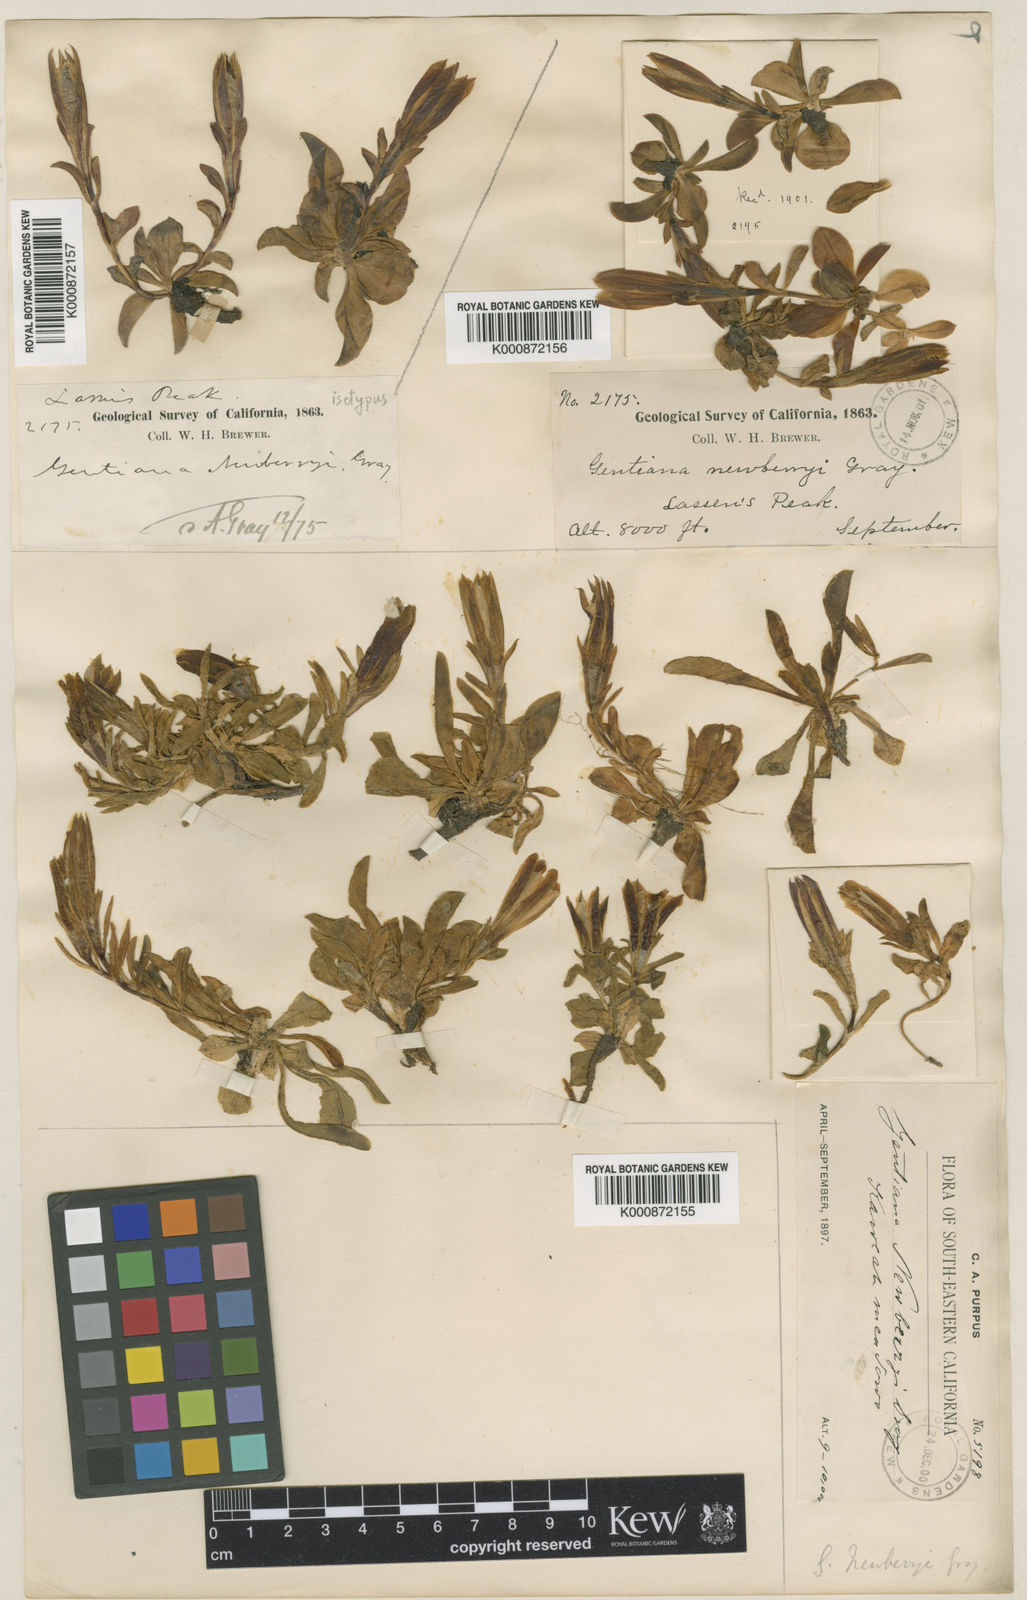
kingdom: Plantae
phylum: Tracheophyta
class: Magnoliopsida
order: Gentianales
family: Gentianaceae
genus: Gentiana
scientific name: Gentiana newberryi
